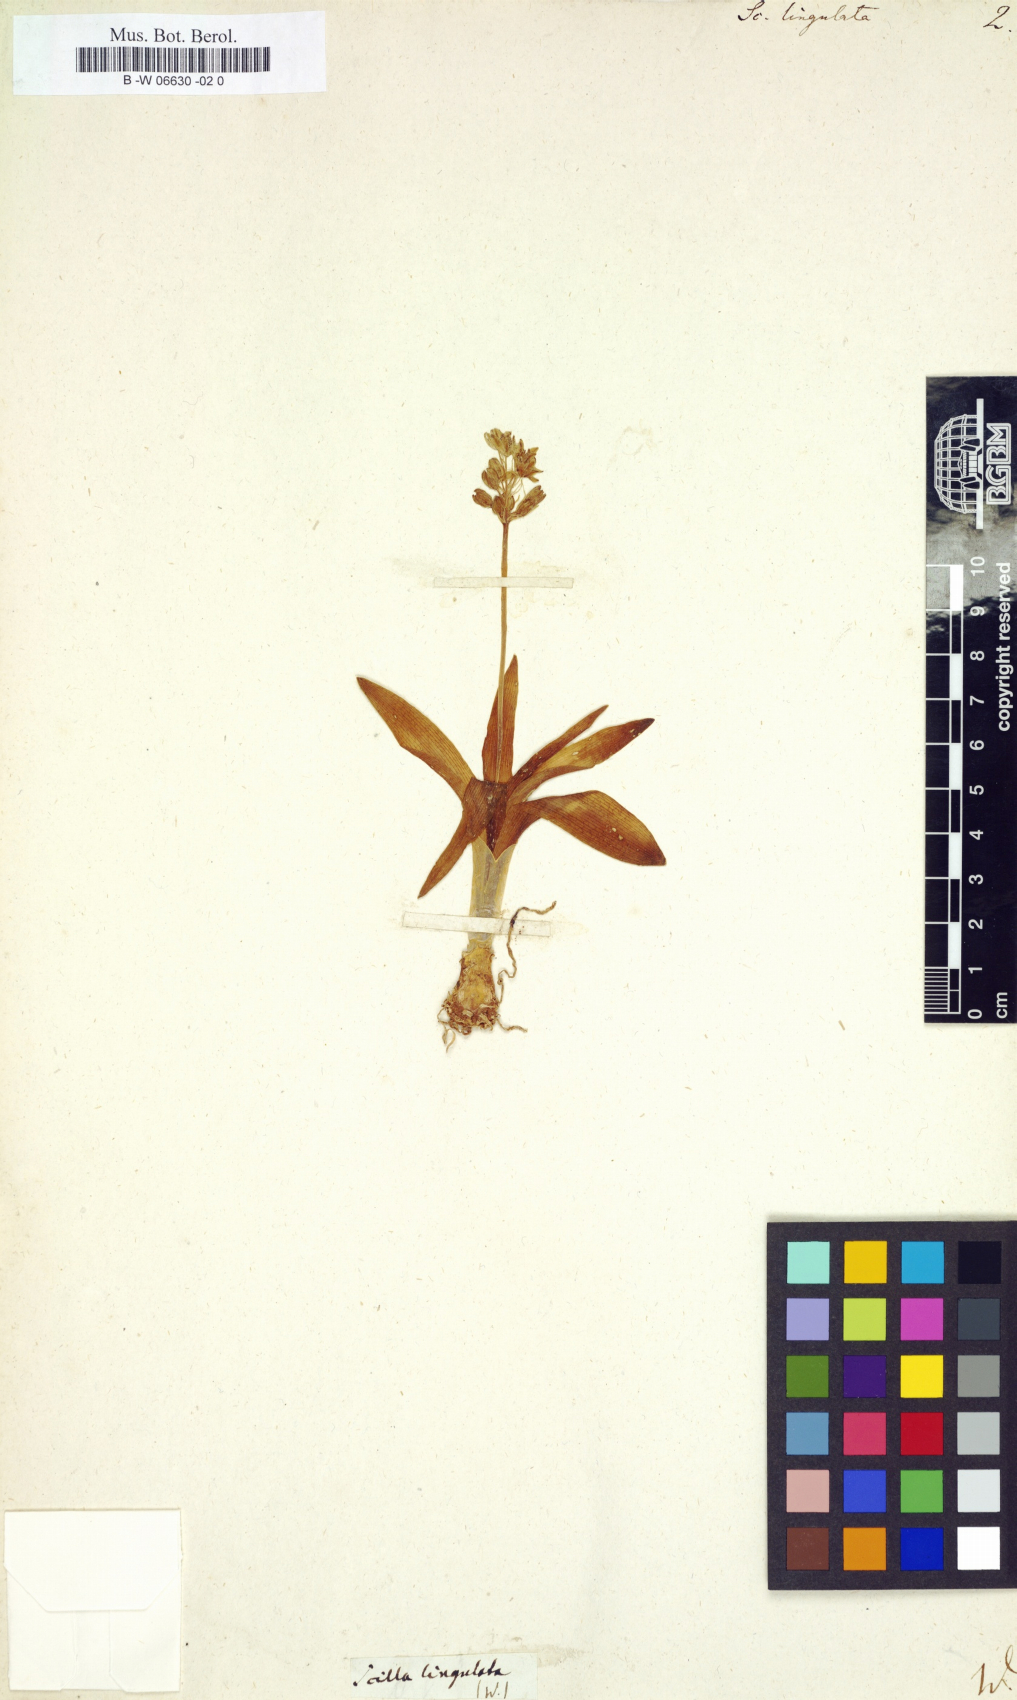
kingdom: Plantae
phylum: Tracheophyta
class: Liliopsida
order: Asparagales
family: Asparagaceae
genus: Hyacinthoides
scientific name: Hyacinthoides lingulata
